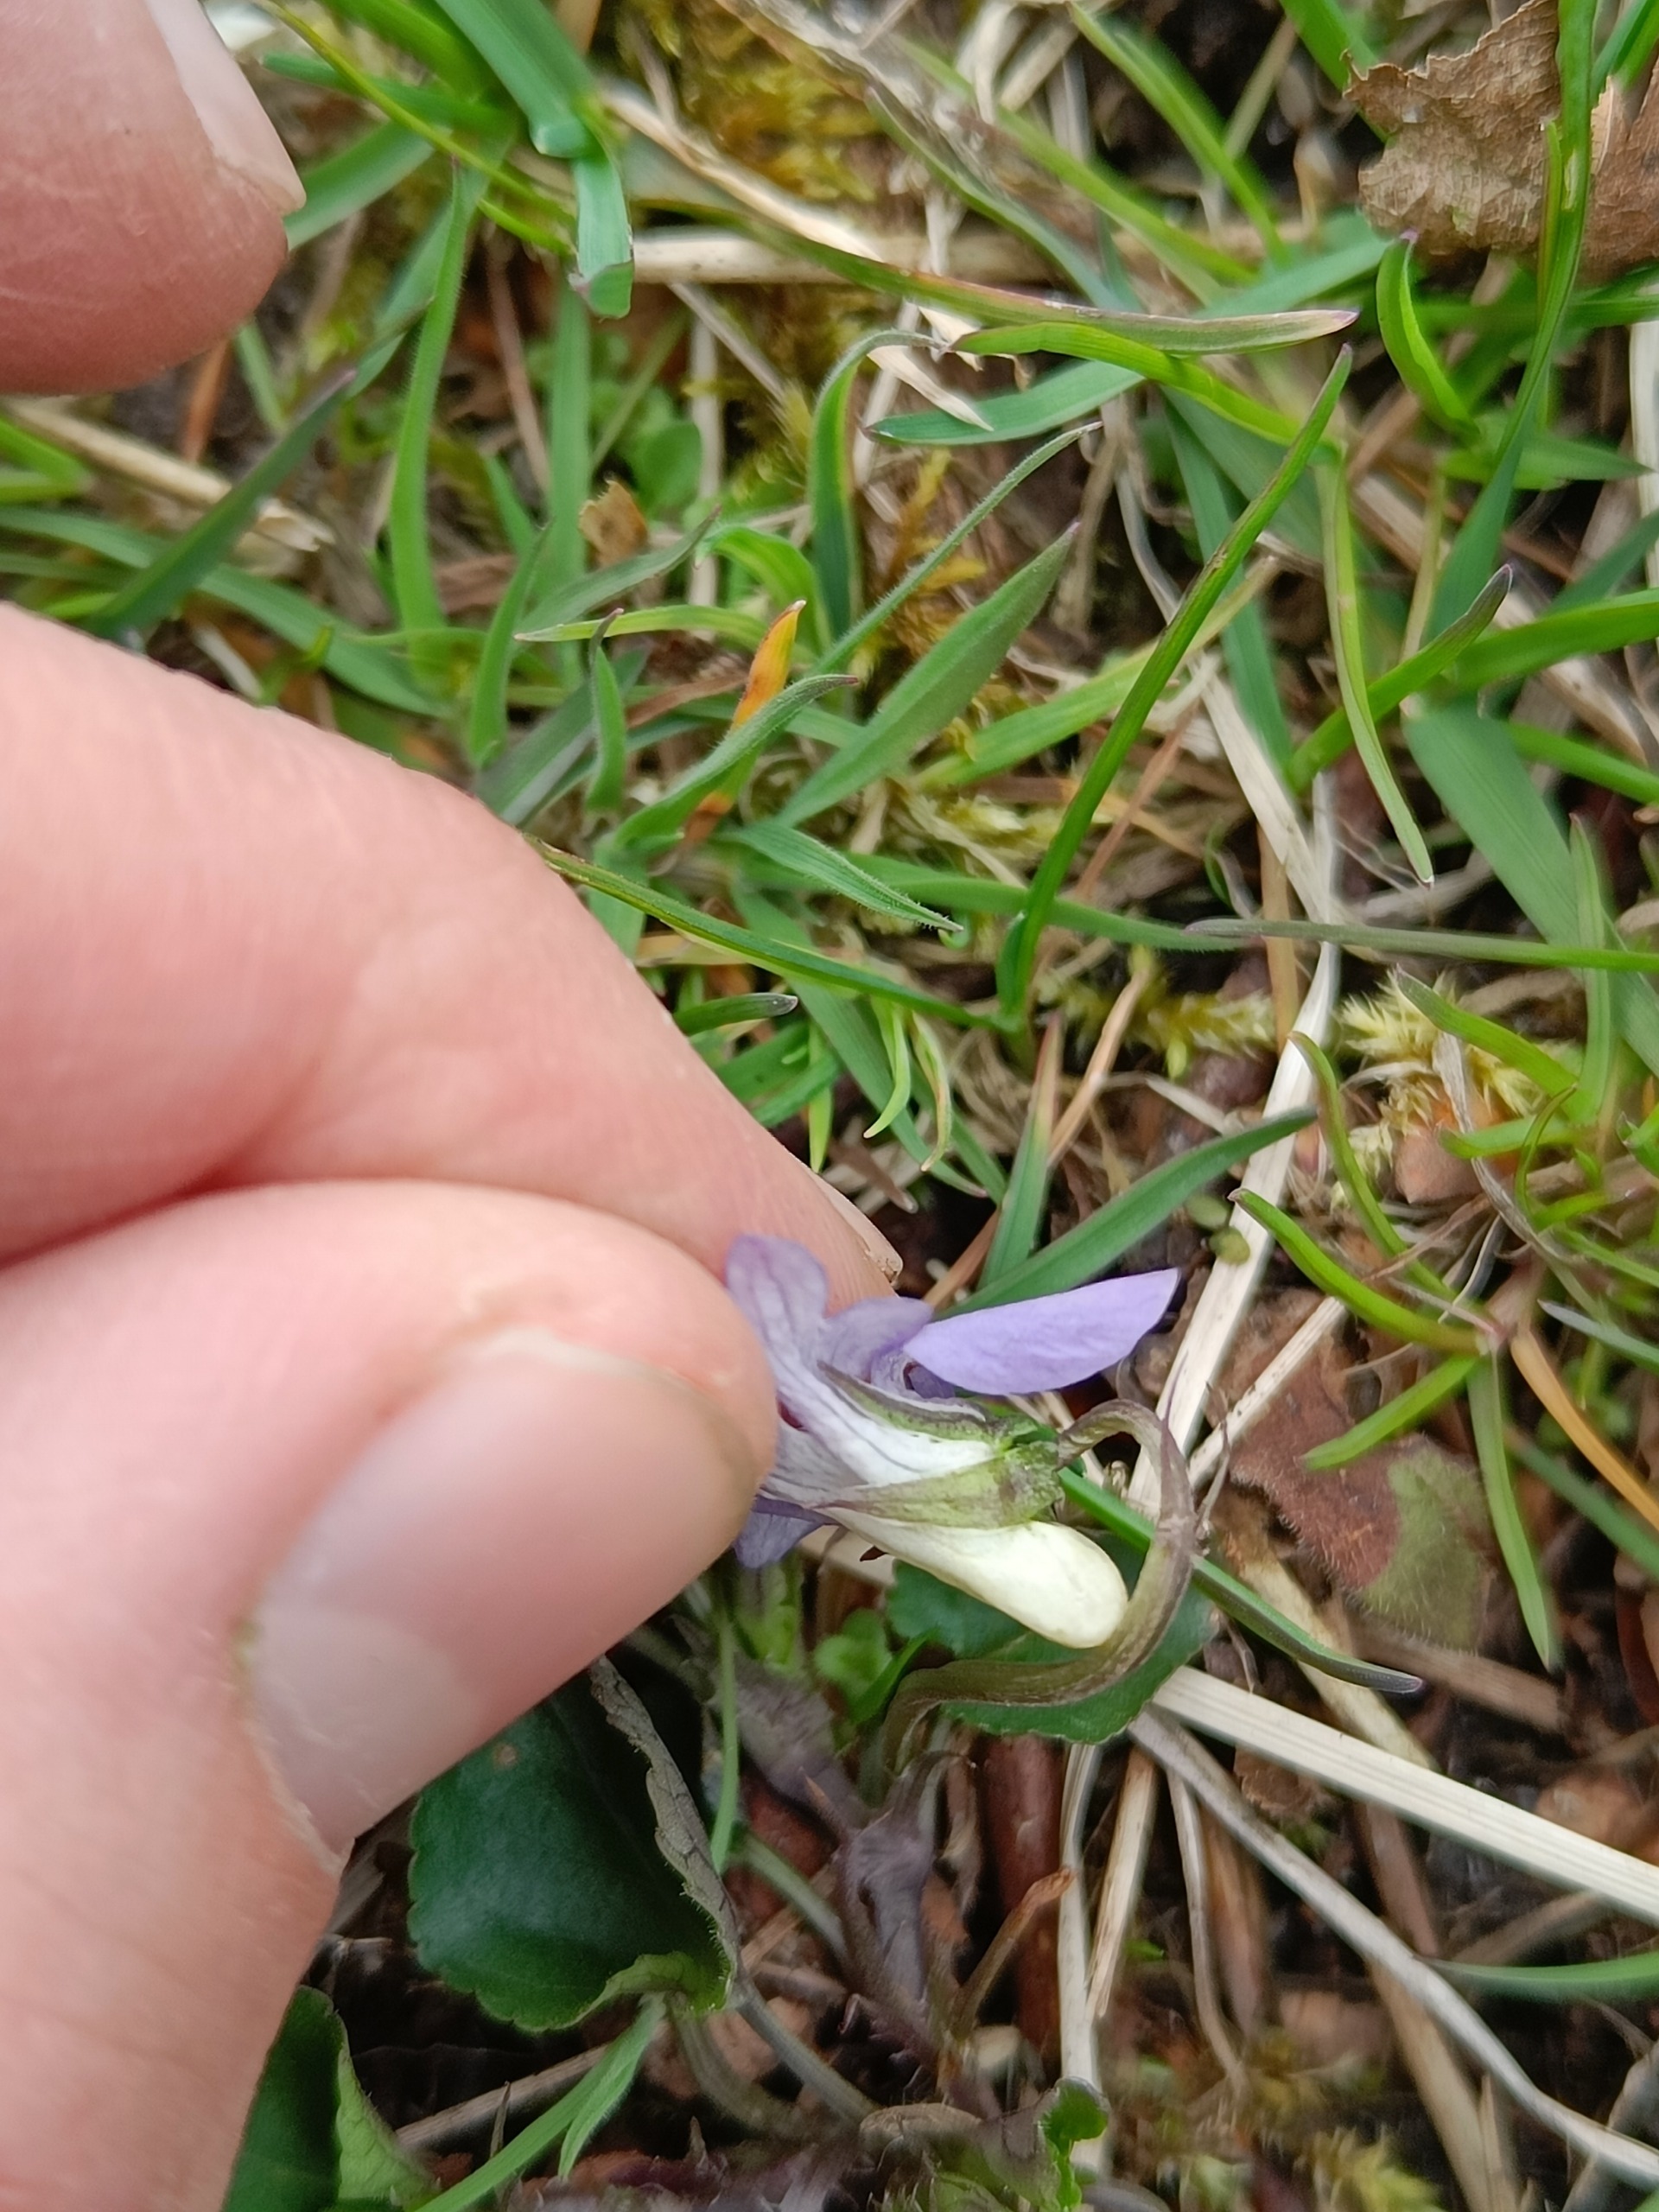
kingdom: Plantae
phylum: Tracheophyta
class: Magnoliopsida
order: Malpighiales
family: Violaceae
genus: Viola
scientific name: Viola riviniana
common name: Krat-viol
